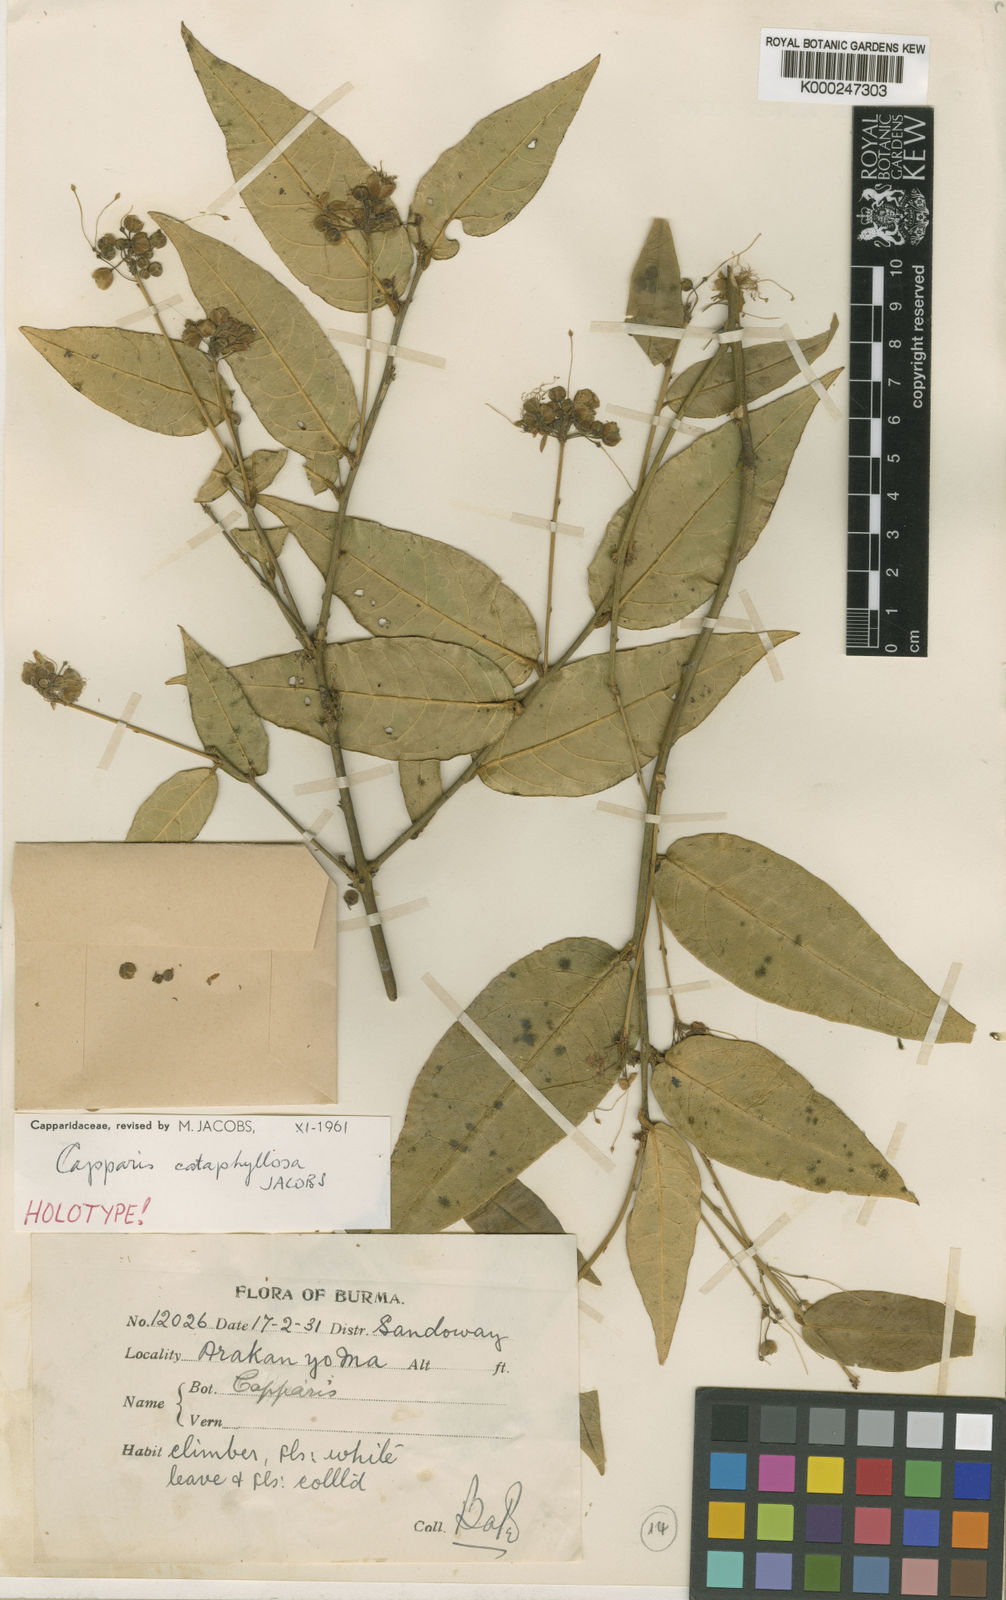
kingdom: Plantae
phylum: Tracheophyta
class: Magnoliopsida
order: Brassicales
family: Capparaceae
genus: Capparis
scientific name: Capparis cataphyllosa
